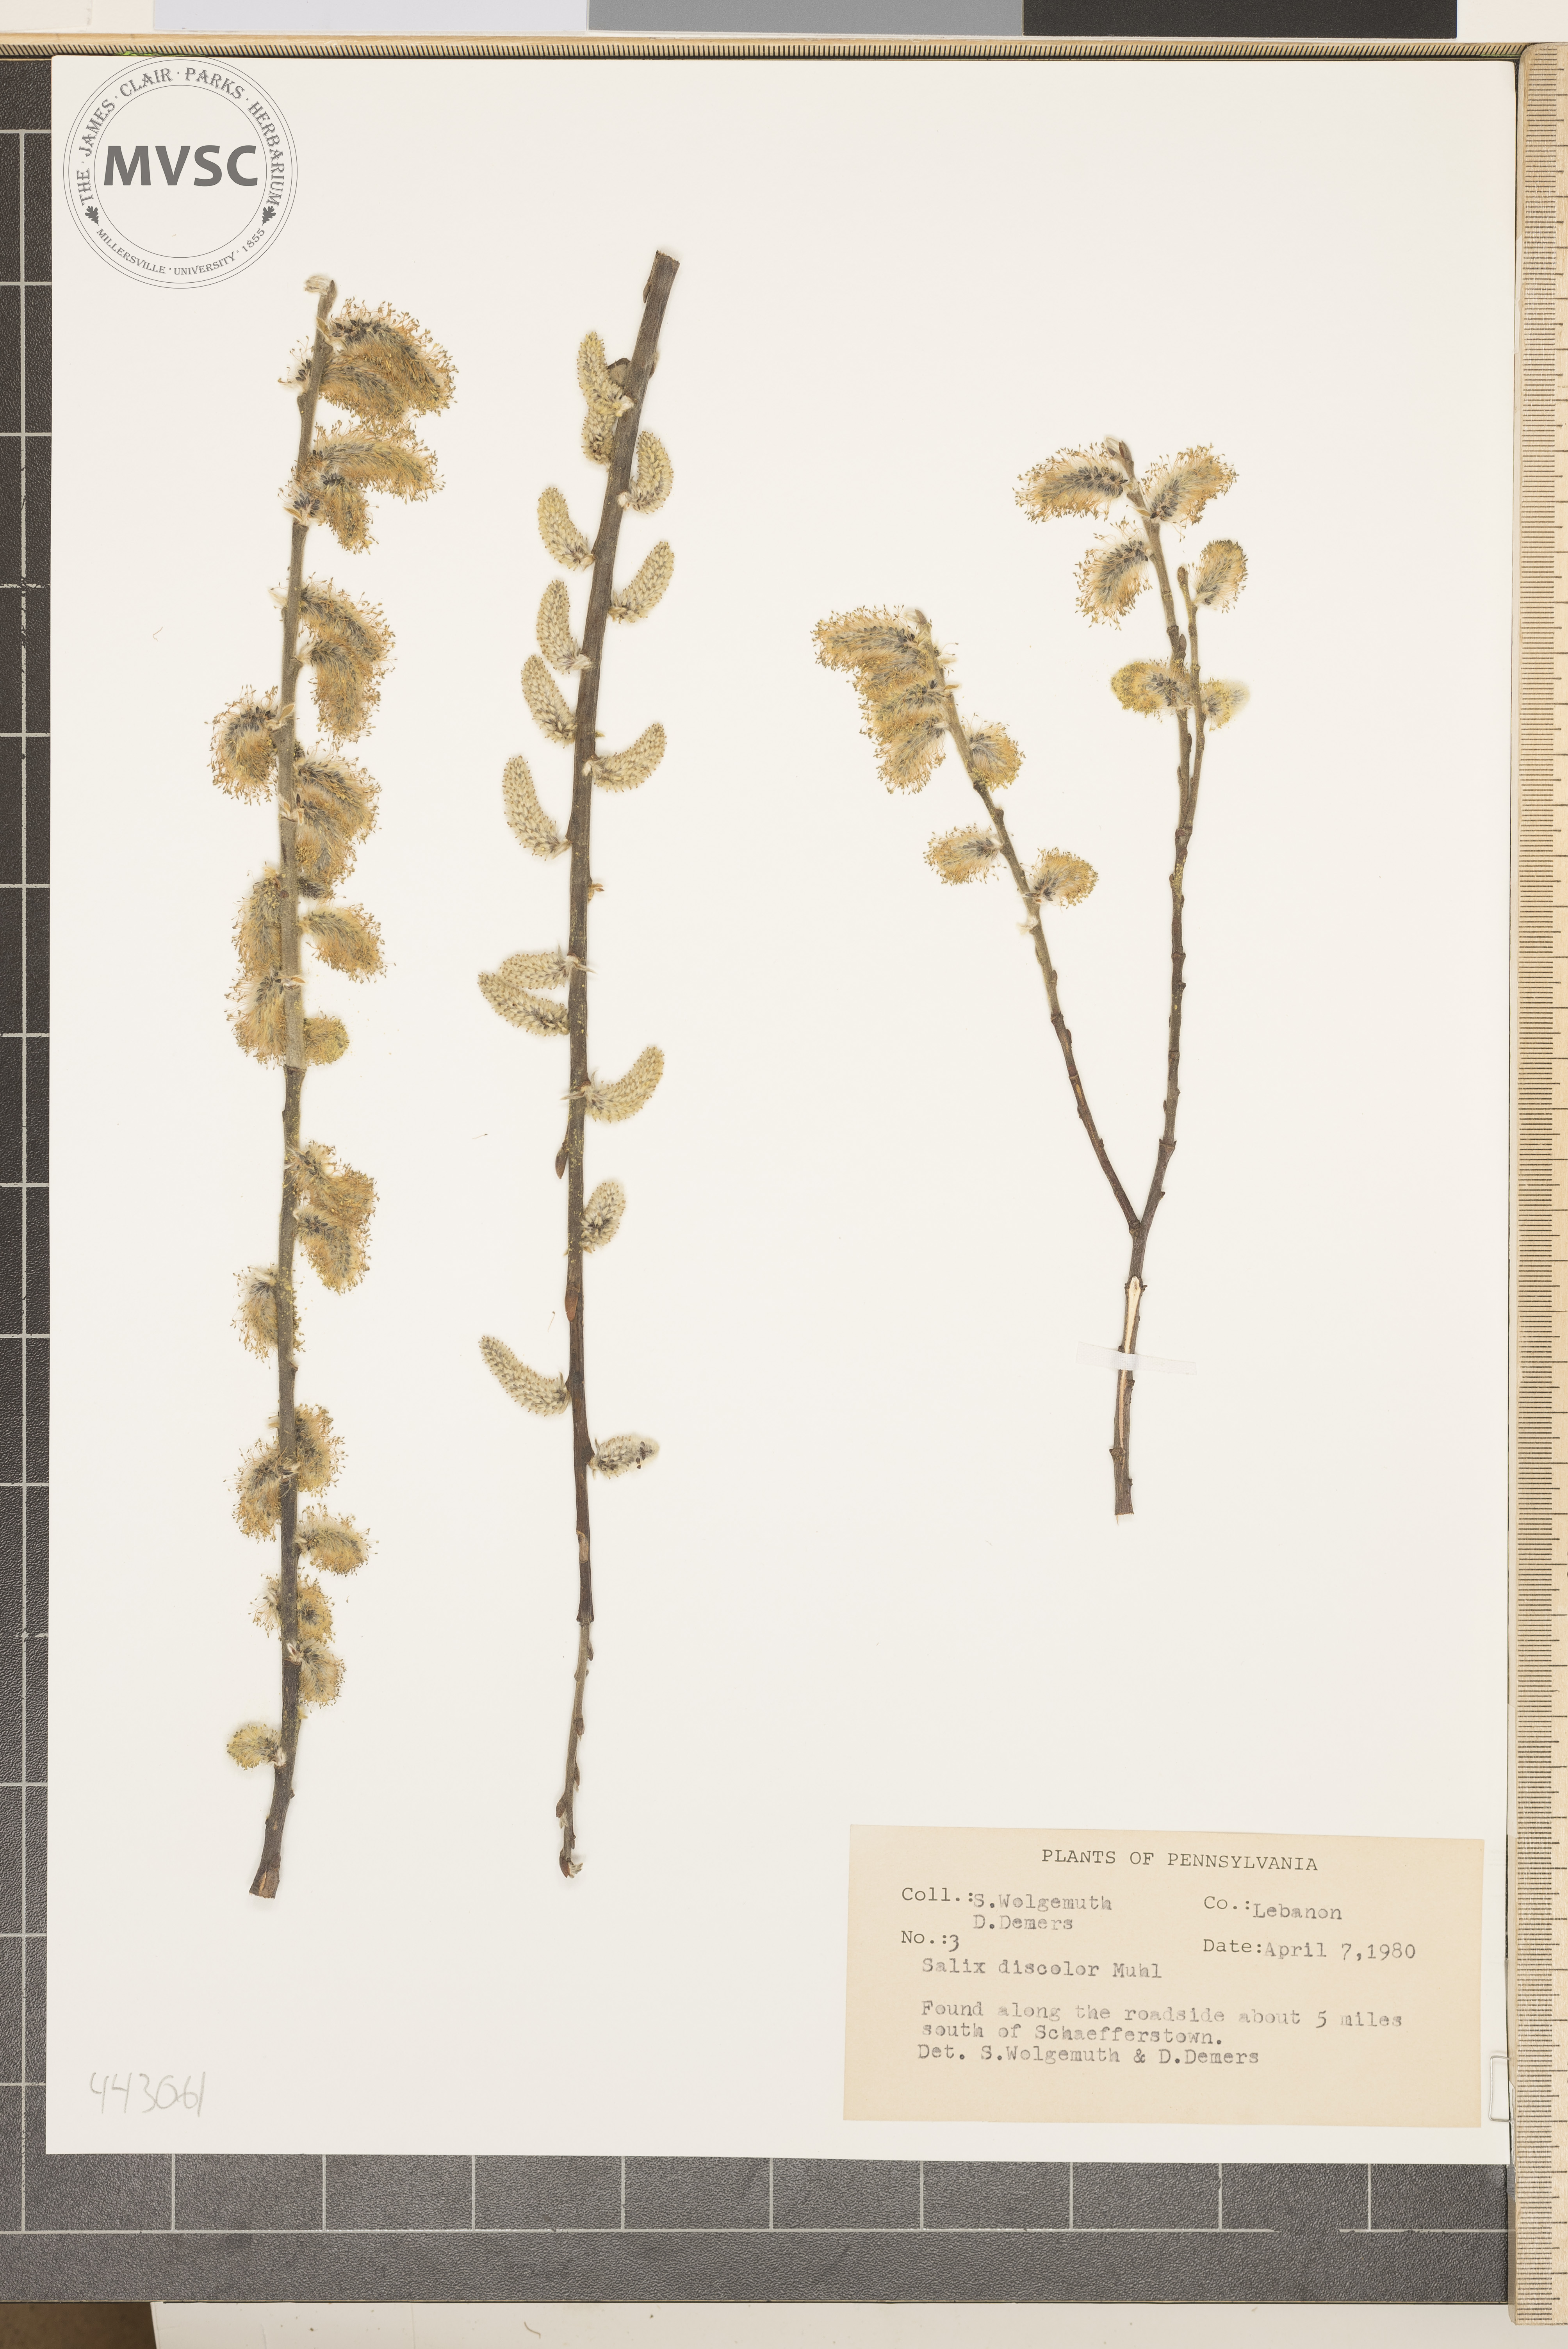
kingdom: Plantae
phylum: Tracheophyta
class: Magnoliopsida
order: Malpighiales
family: Salicaceae
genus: Salix
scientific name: Salix discolor
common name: Glaucous willow
